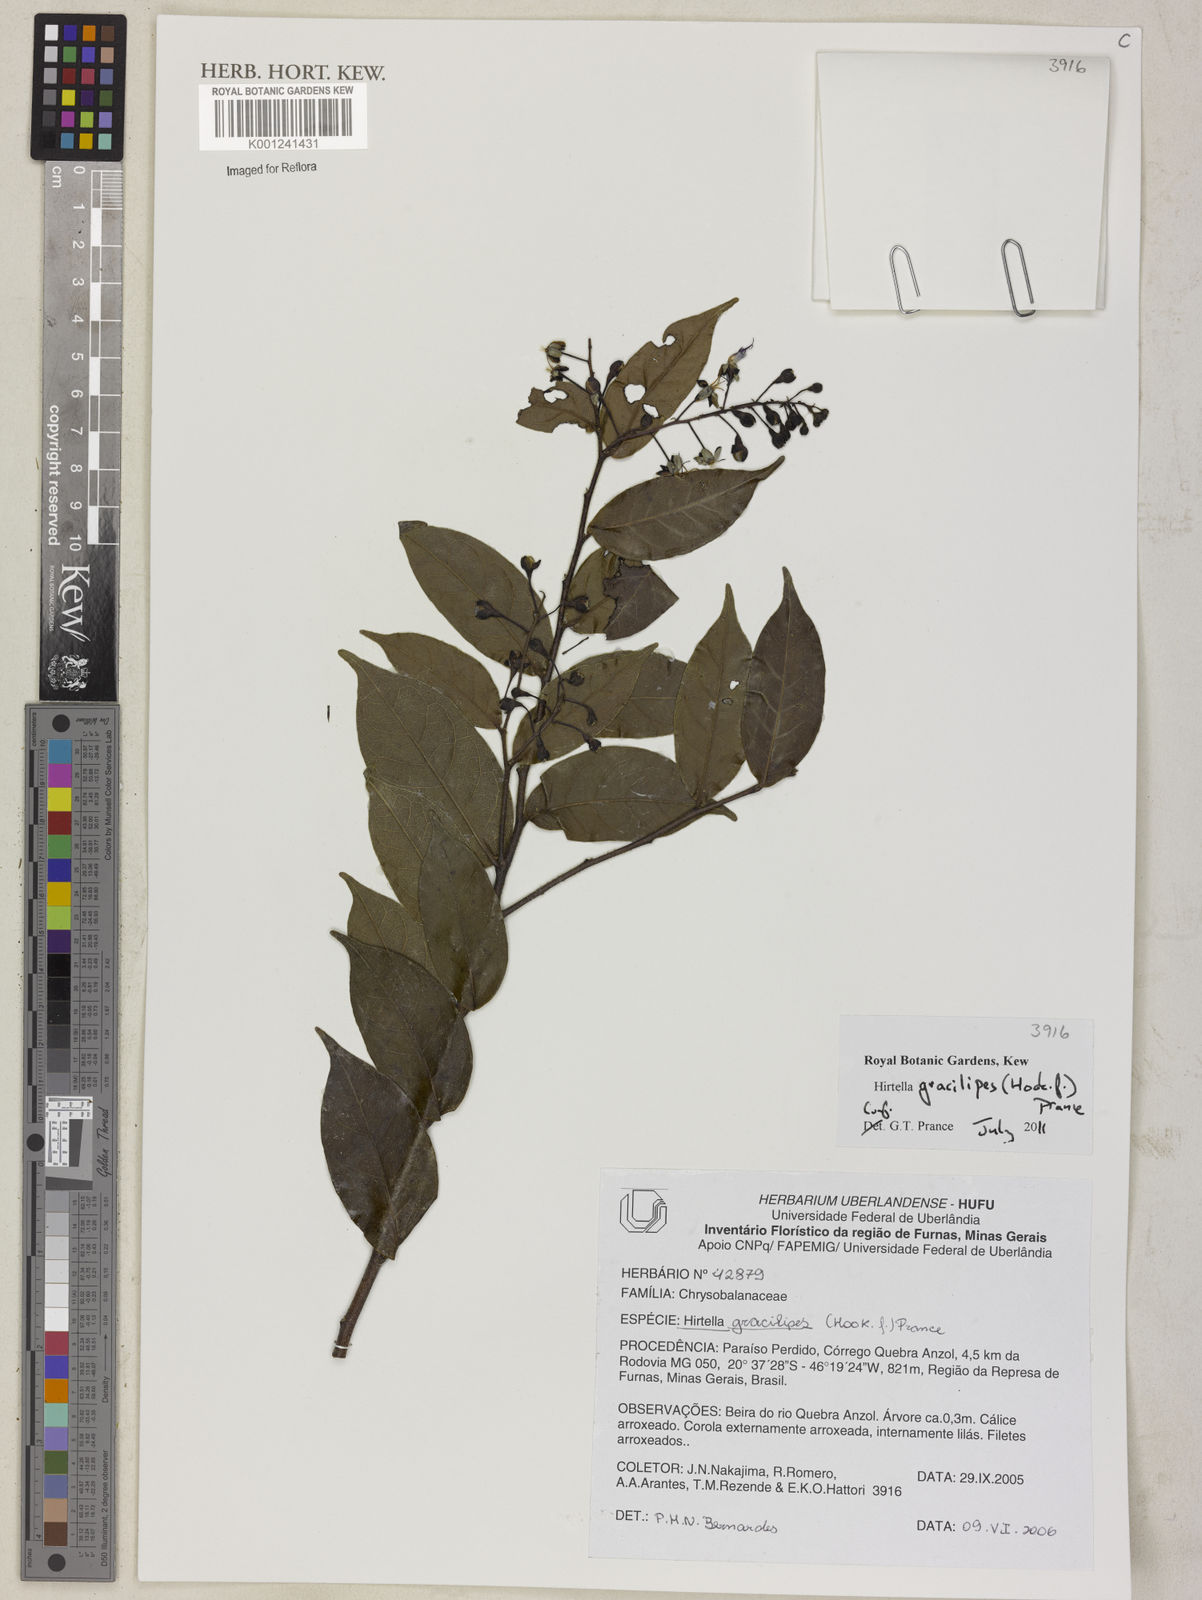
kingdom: Plantae
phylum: Tracheophyta
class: Magnoliopsida
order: Malpighiales
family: Chrysobalanaceae
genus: Hirtella
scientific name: Hirtella gracilipes
